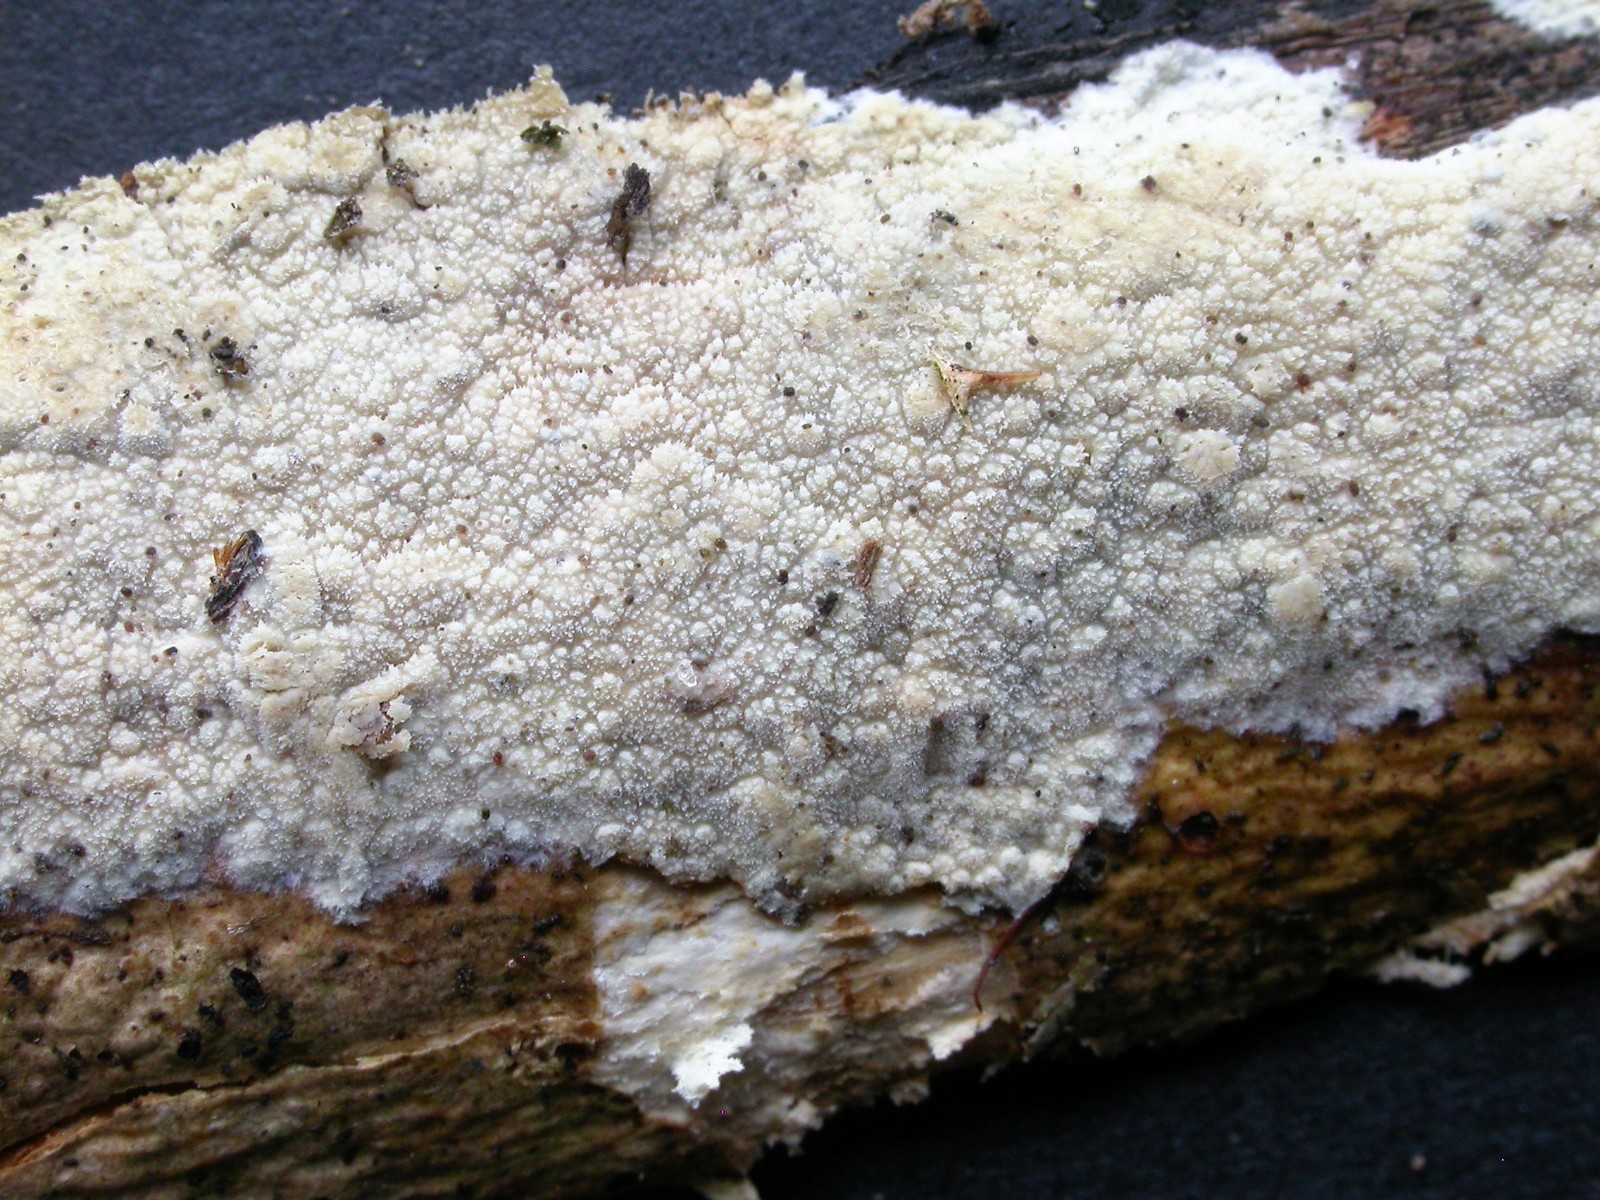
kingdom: Fungi
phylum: Basidiomycota
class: Agaricomycetes
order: Polyporales
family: Phanerochaetaceae
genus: Hyphodermella
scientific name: Hyphodermella corrugata
